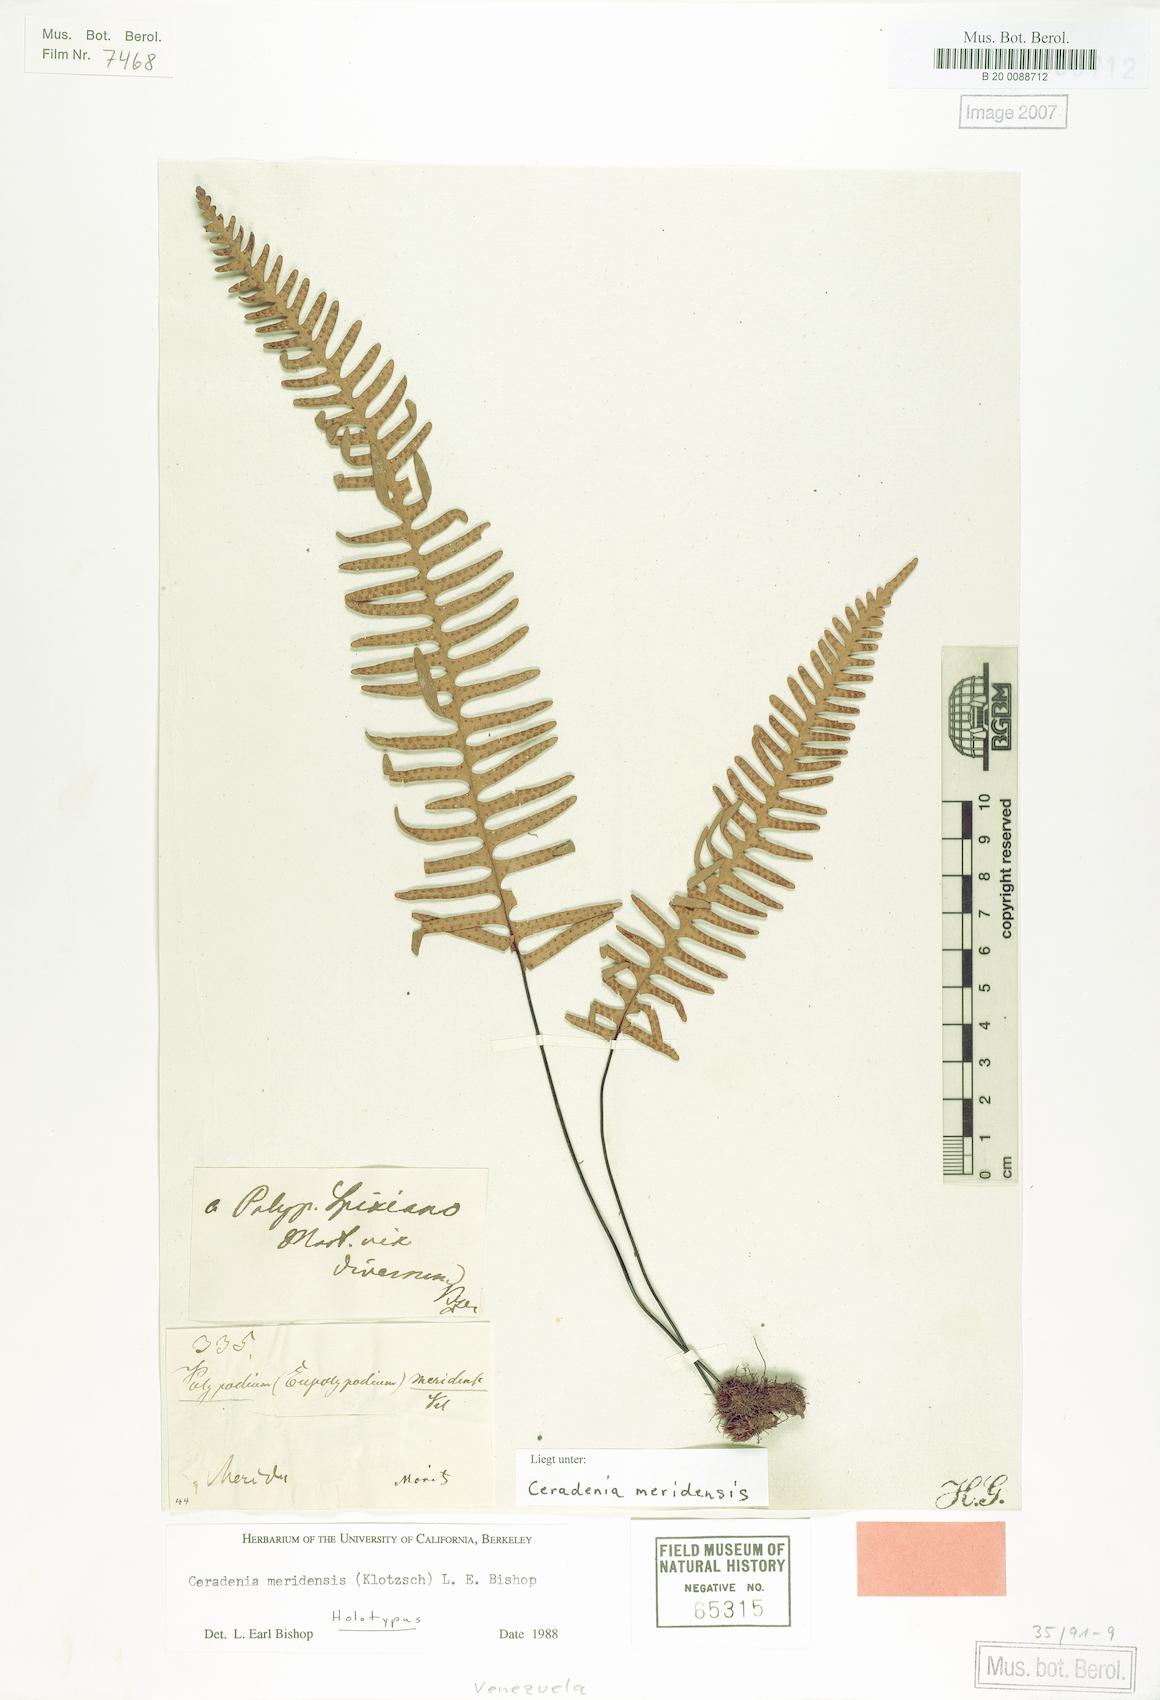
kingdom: Plantae
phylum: Tracheophyta
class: Polypodiopsida
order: Polypodiales
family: Polypodiaceae
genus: Ceradenia
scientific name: Ceradenia meridensis
